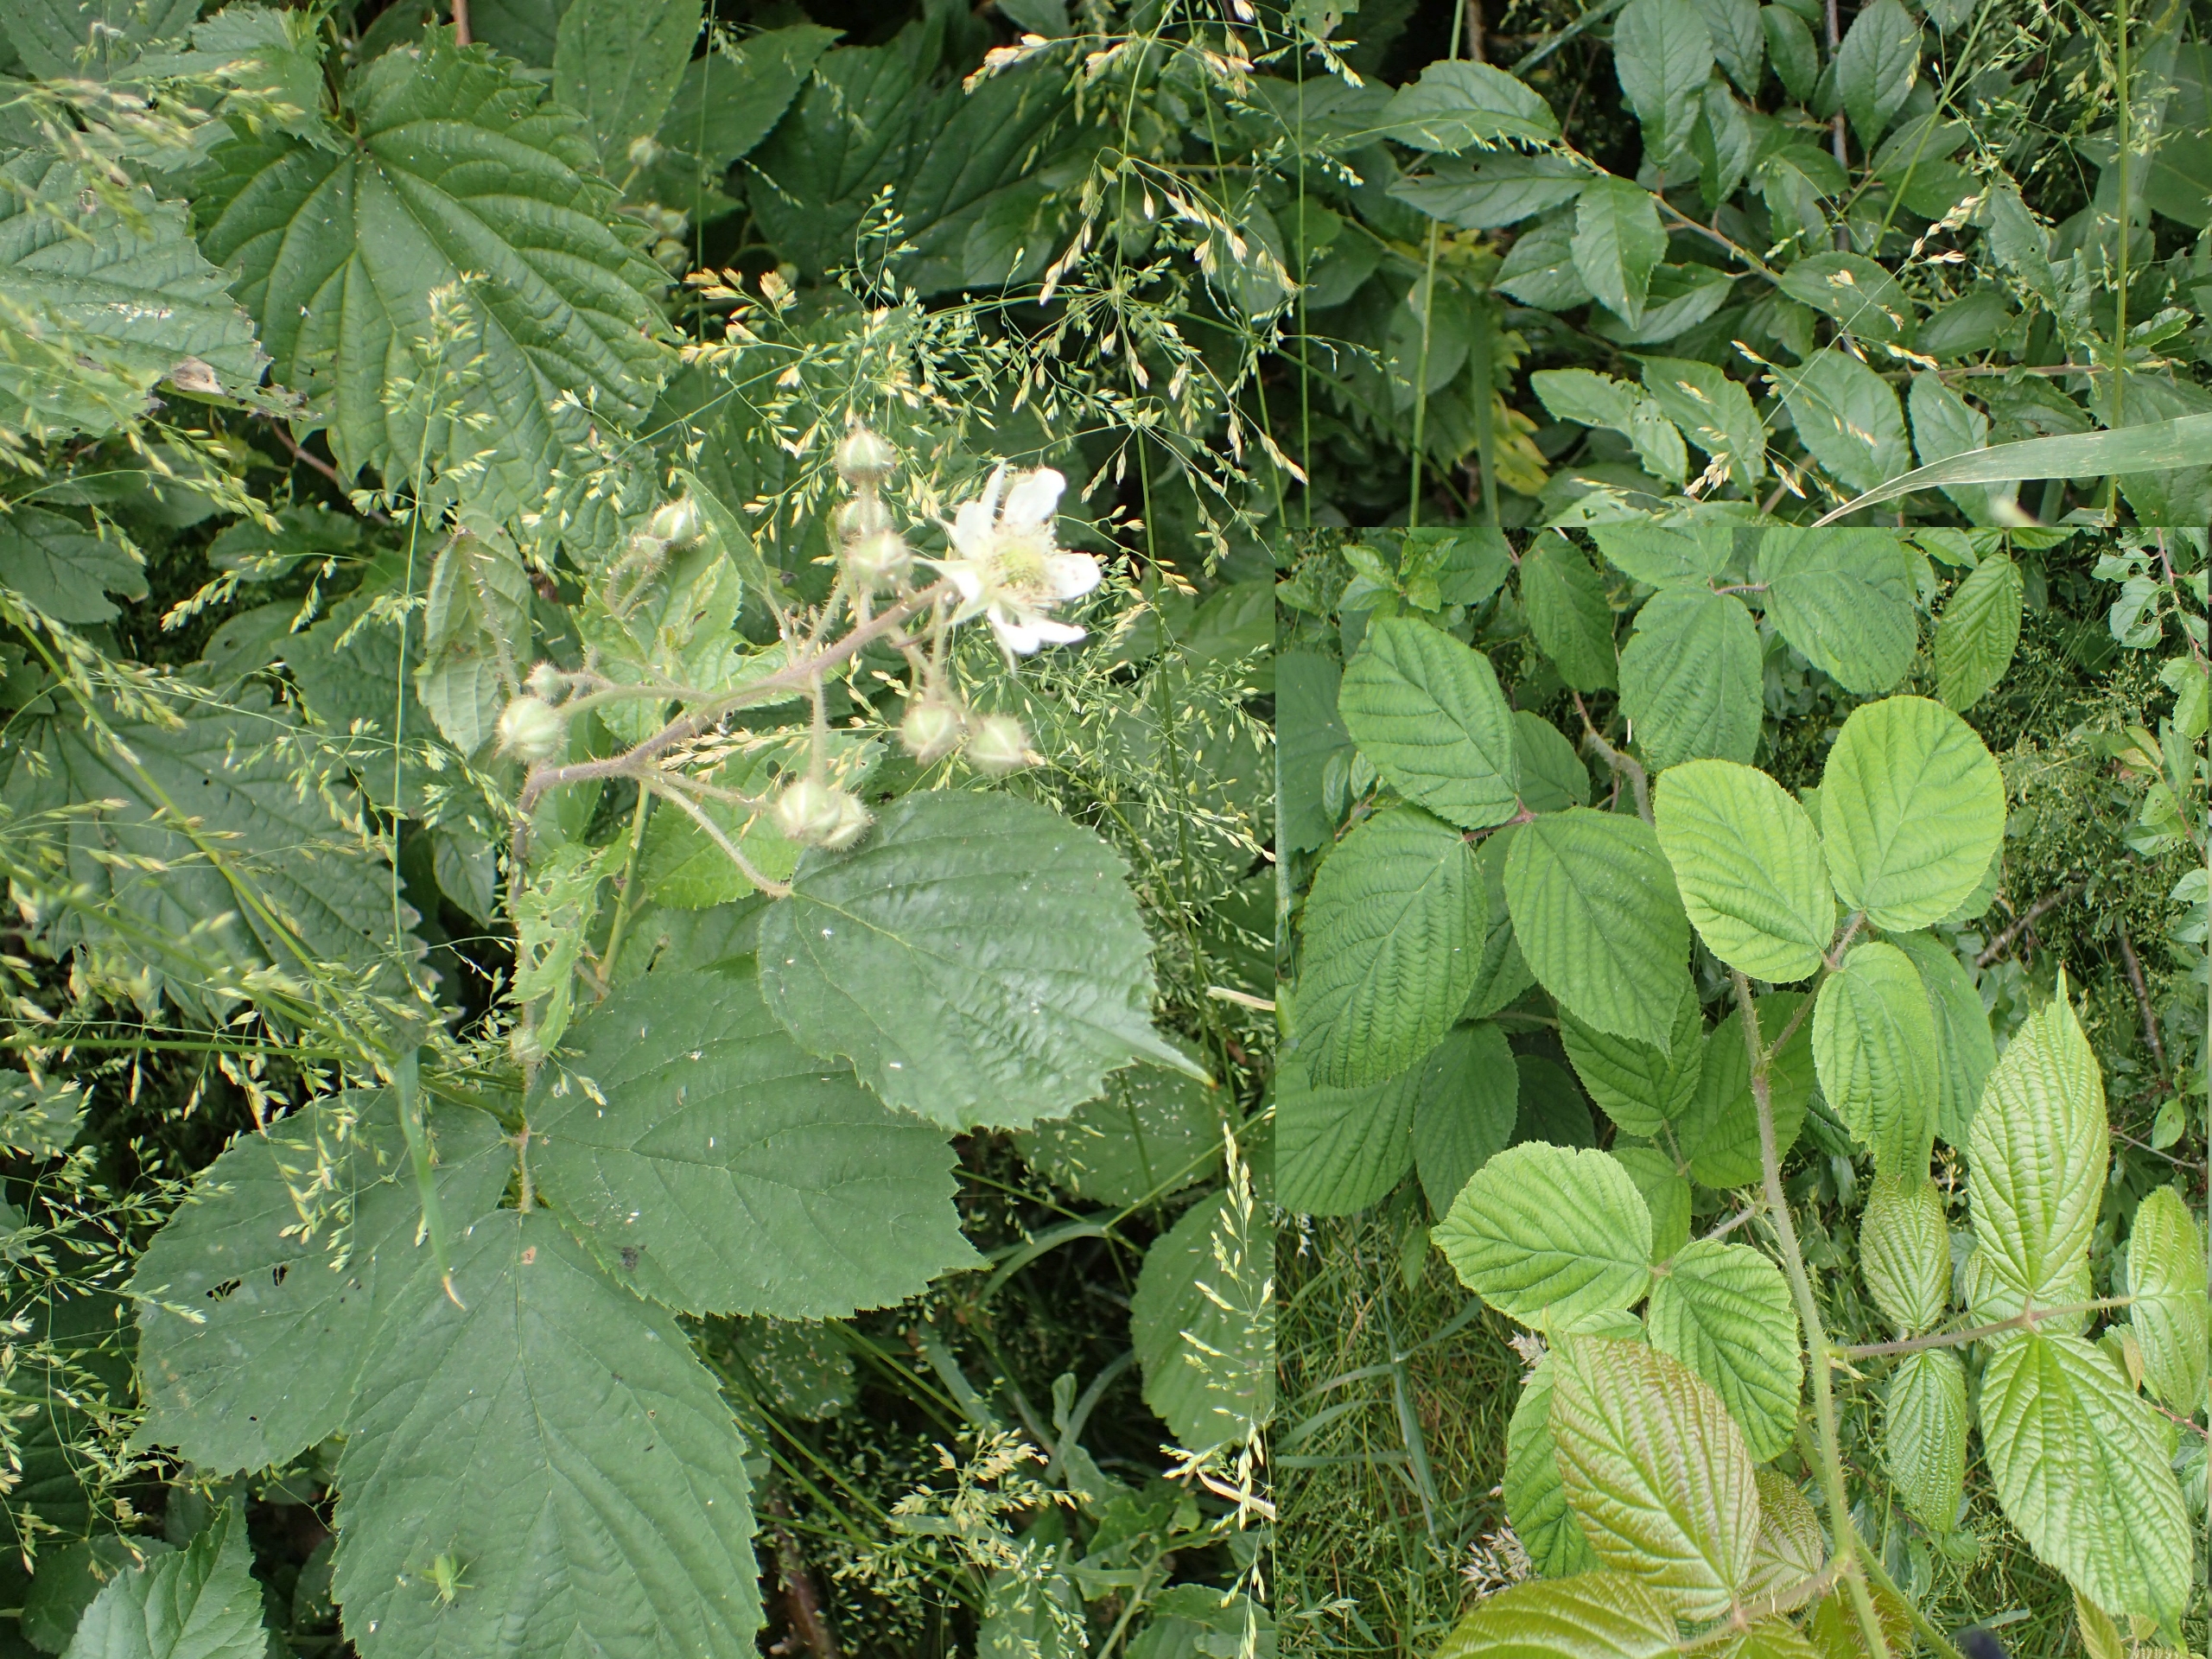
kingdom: Plantae
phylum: Tracheophyta
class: Magnoliopsida
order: Rosales
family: Rosaceae
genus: Rubus
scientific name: Rubus nigricans
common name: Trebladet brombær
